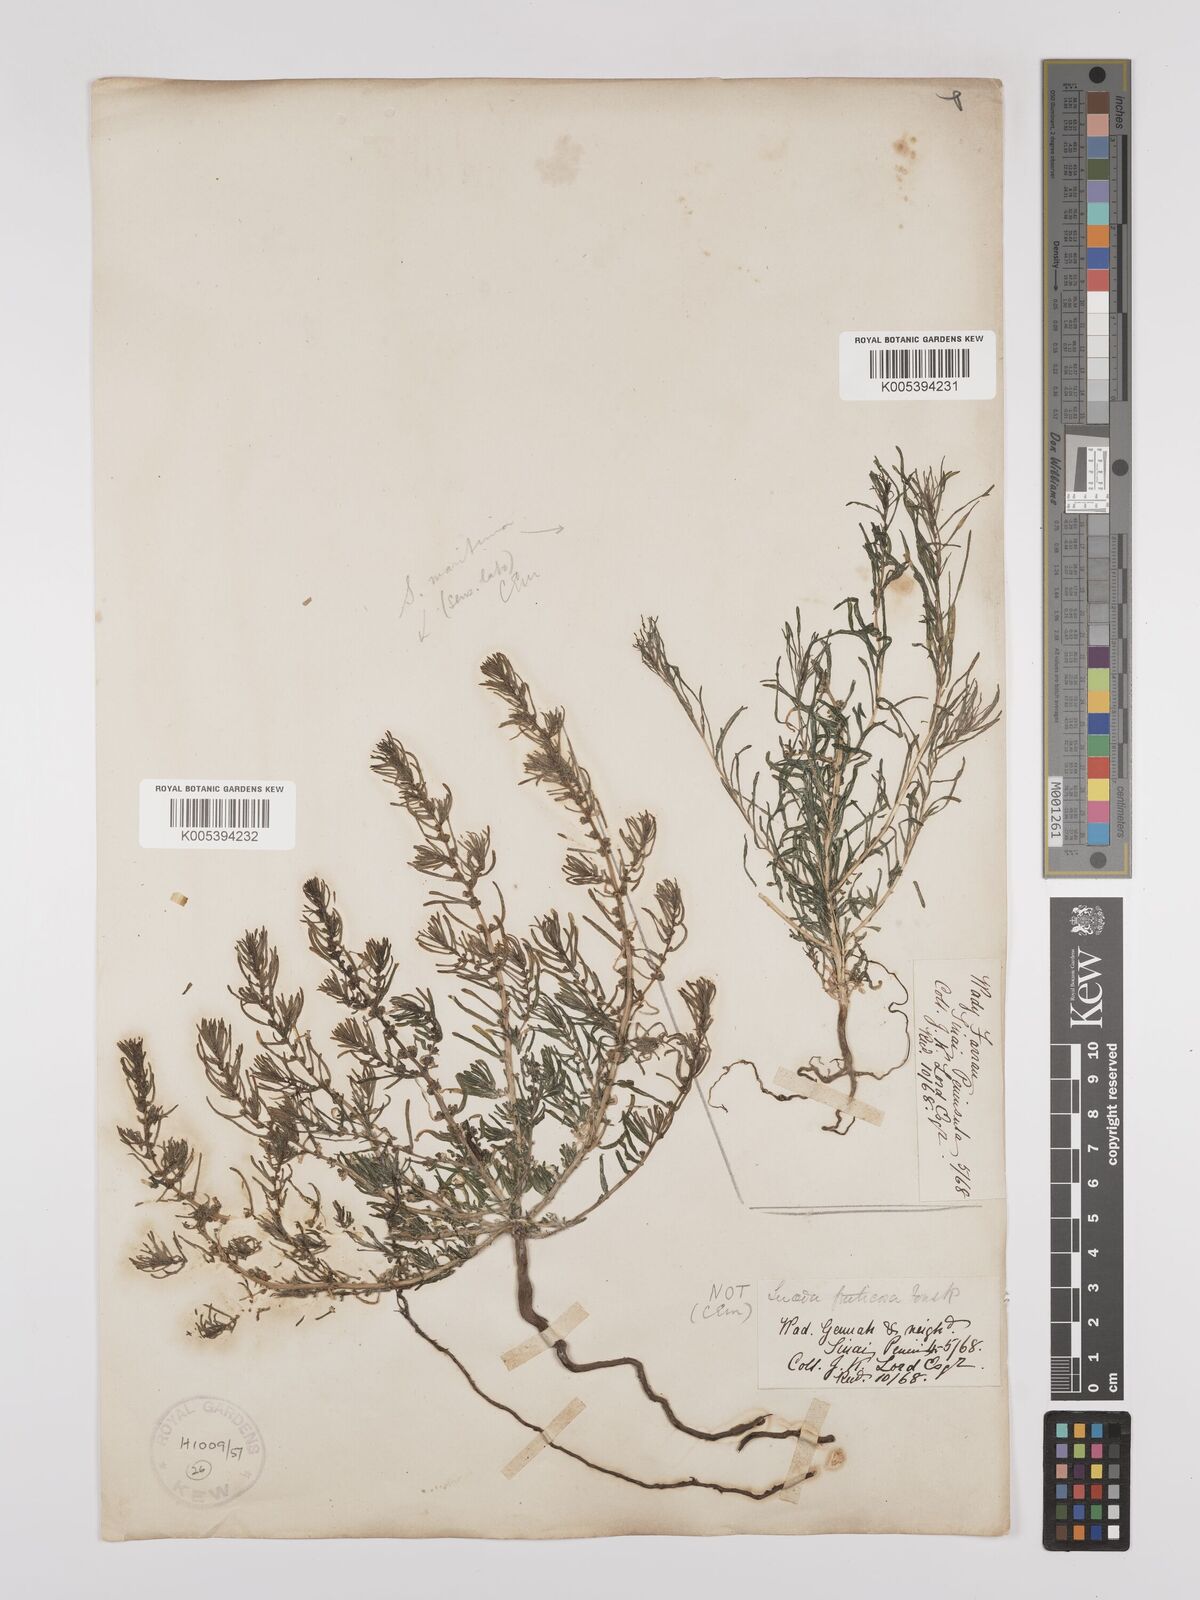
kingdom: Plantae
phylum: Tracheophyta
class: Magnoliopsida
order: Caryophyllales
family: Amaranthaceae
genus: Suaeda
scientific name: Suaeda
